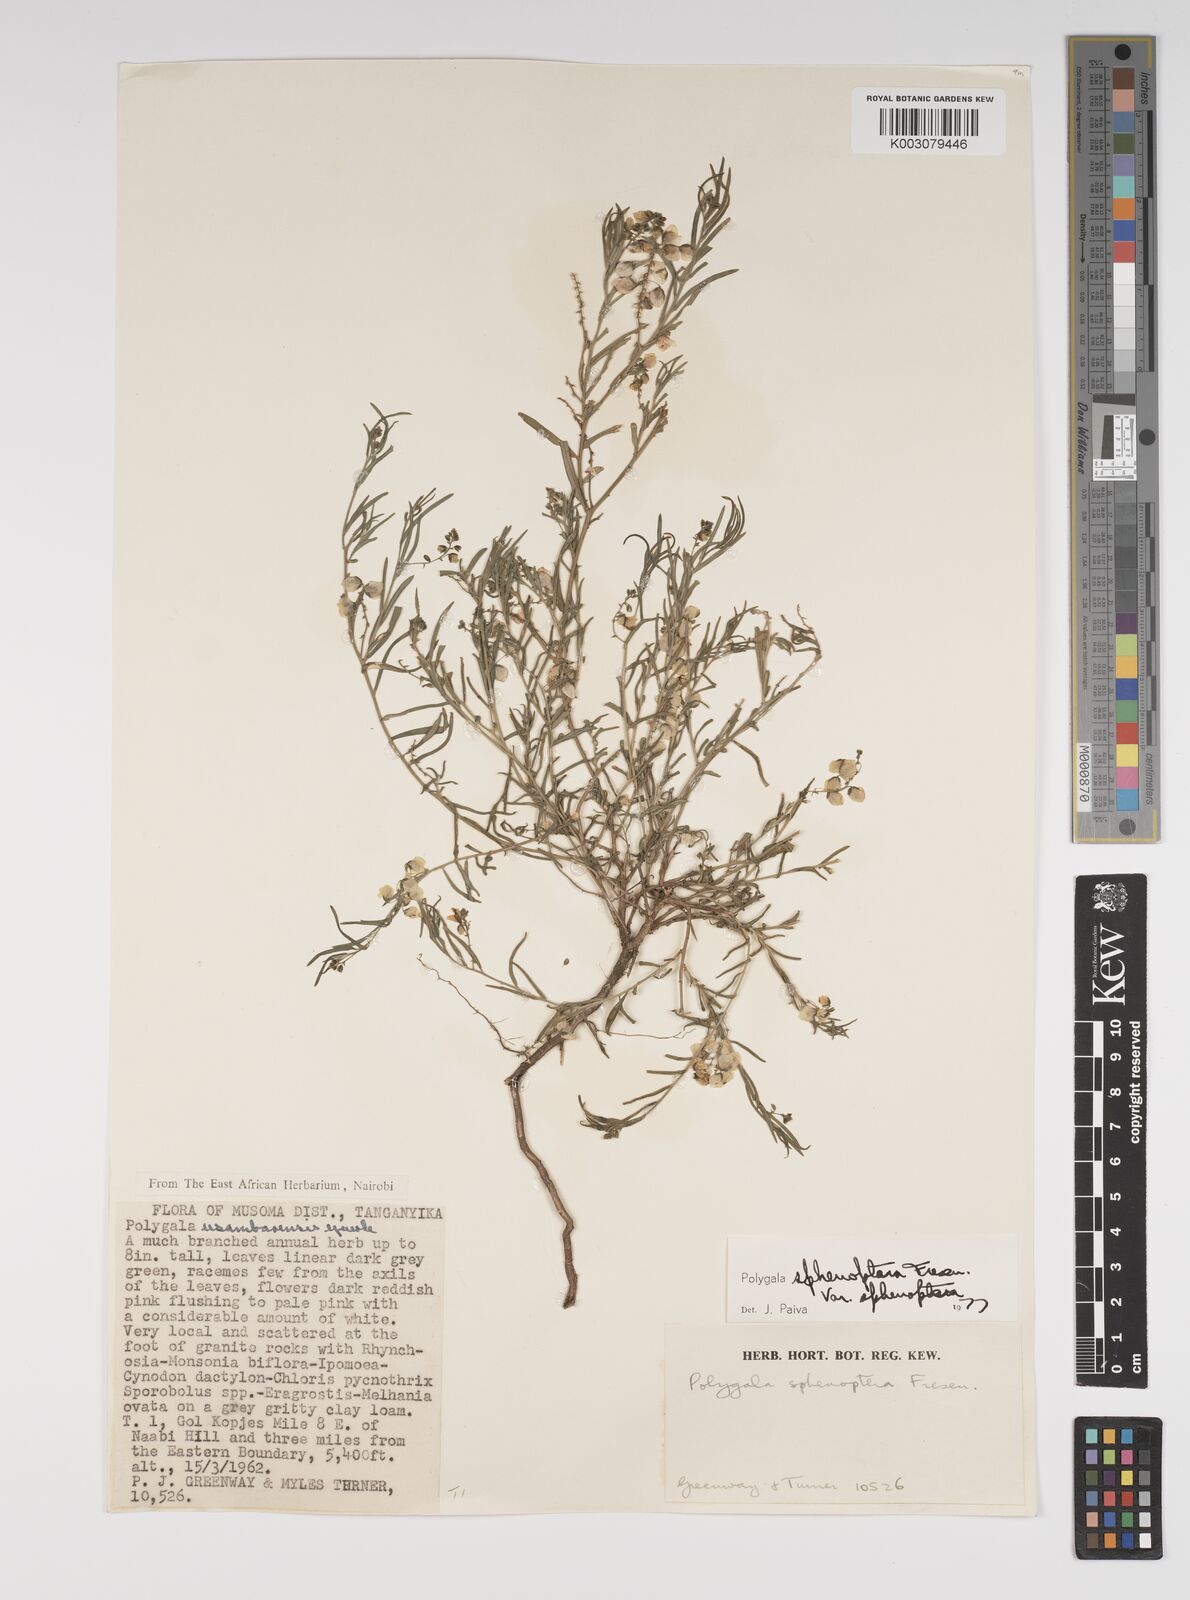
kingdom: Plantae
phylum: Tracheophyta
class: Magnoliopsida
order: Fabales
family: Polygalaceae
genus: Polygala
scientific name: Polygala sphenoptera
